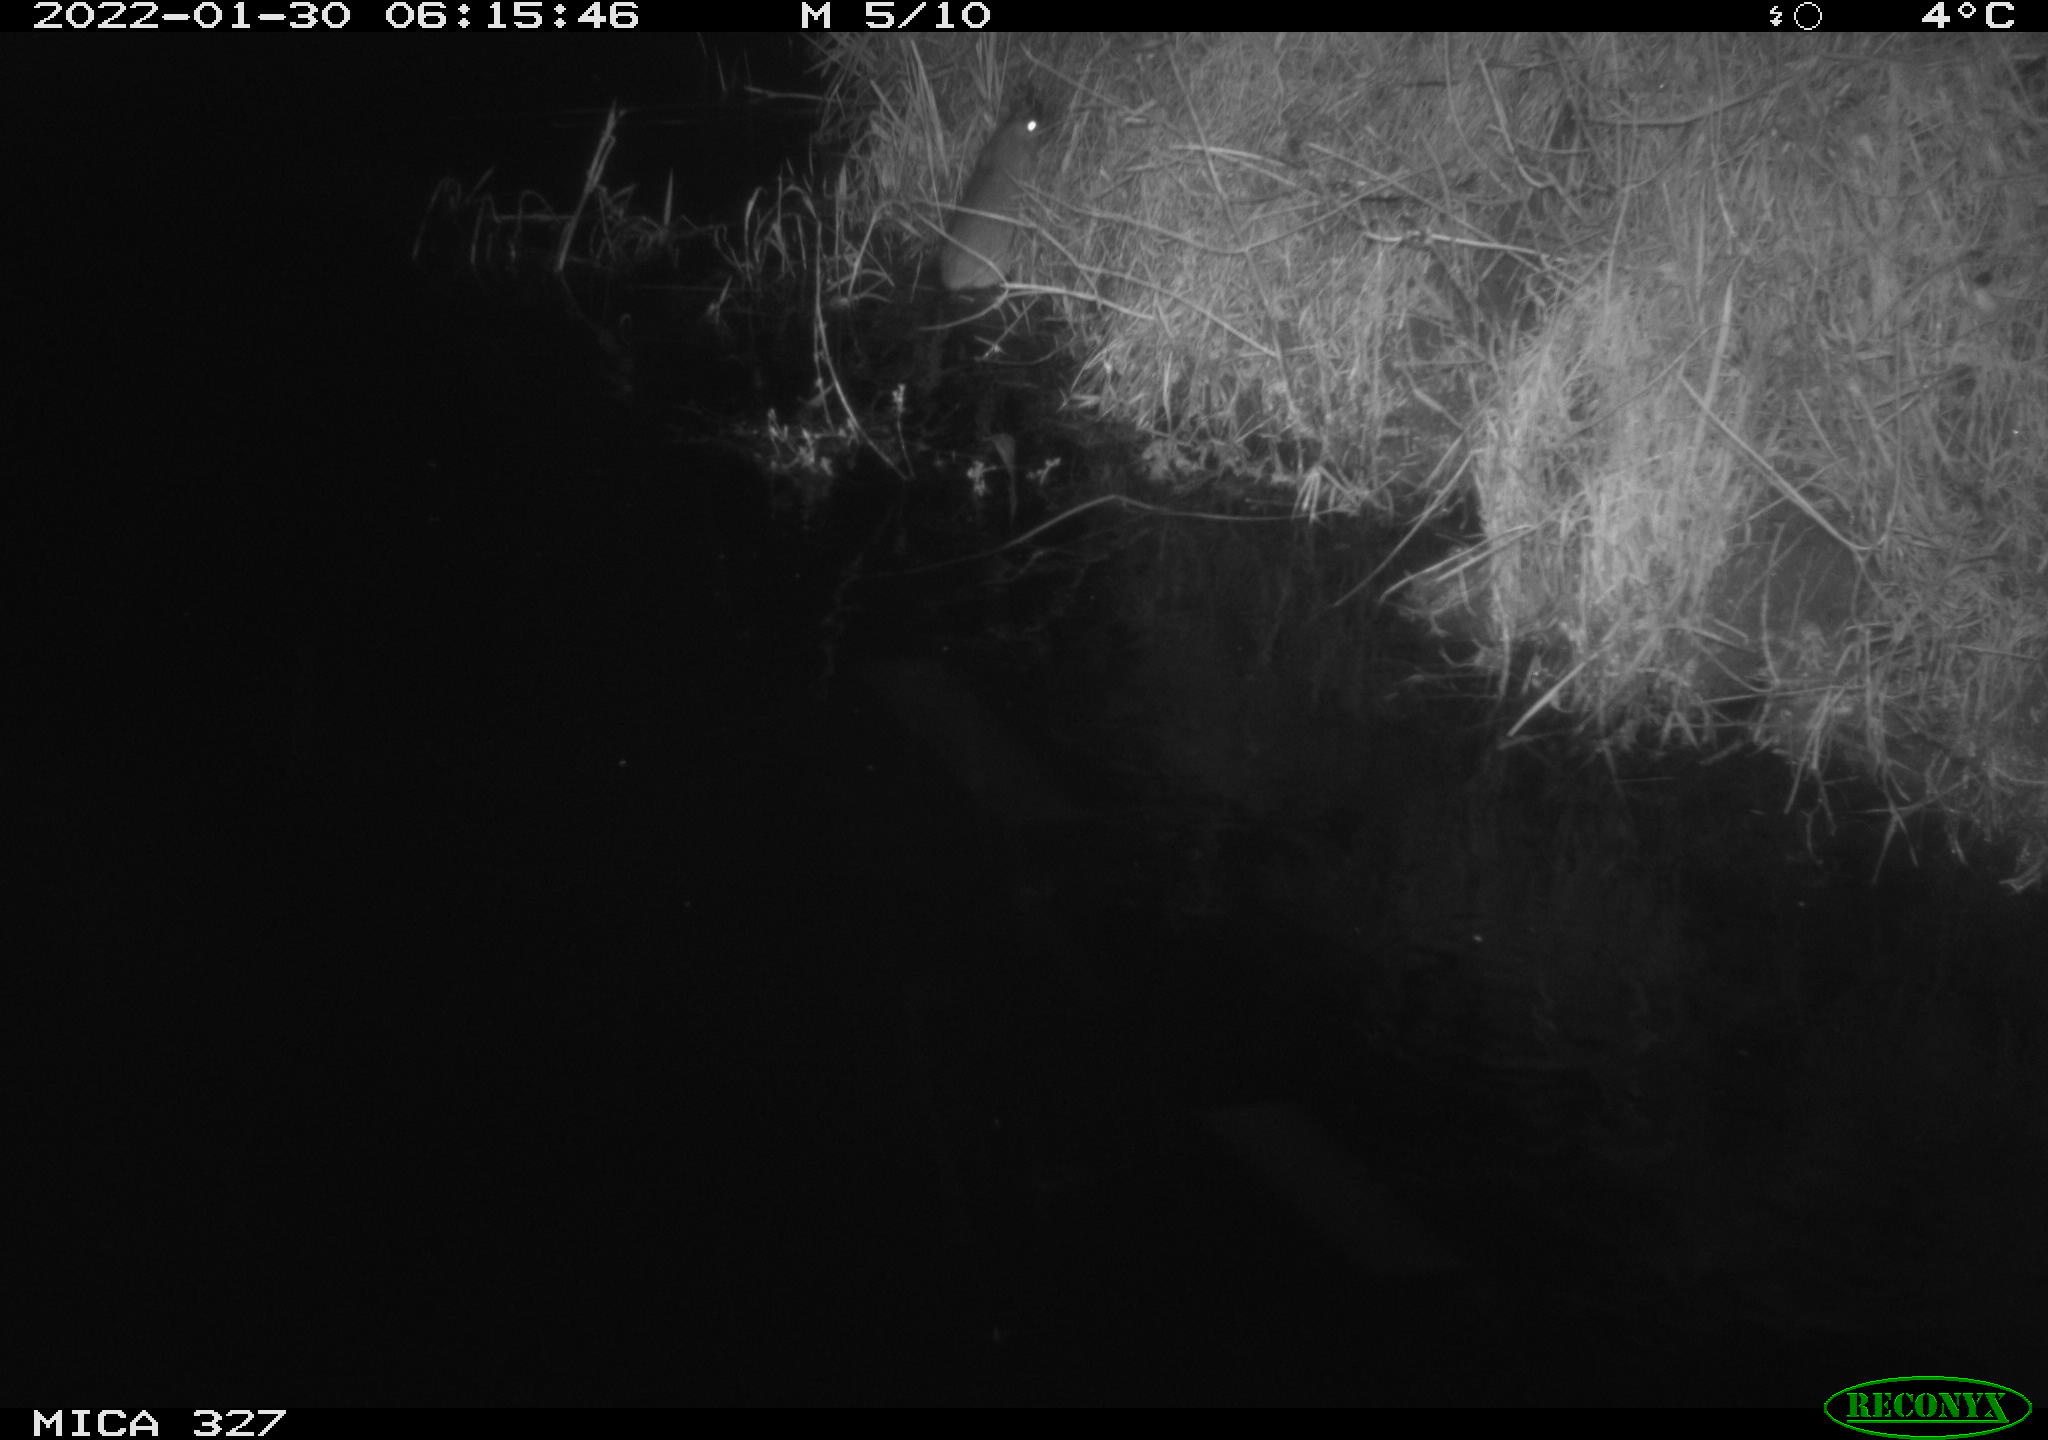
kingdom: Animalia
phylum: Chordata
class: Mammalia
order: Rodentia
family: Muridae
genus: Rattus
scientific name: Rattus norvegicus
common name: Brown rat
